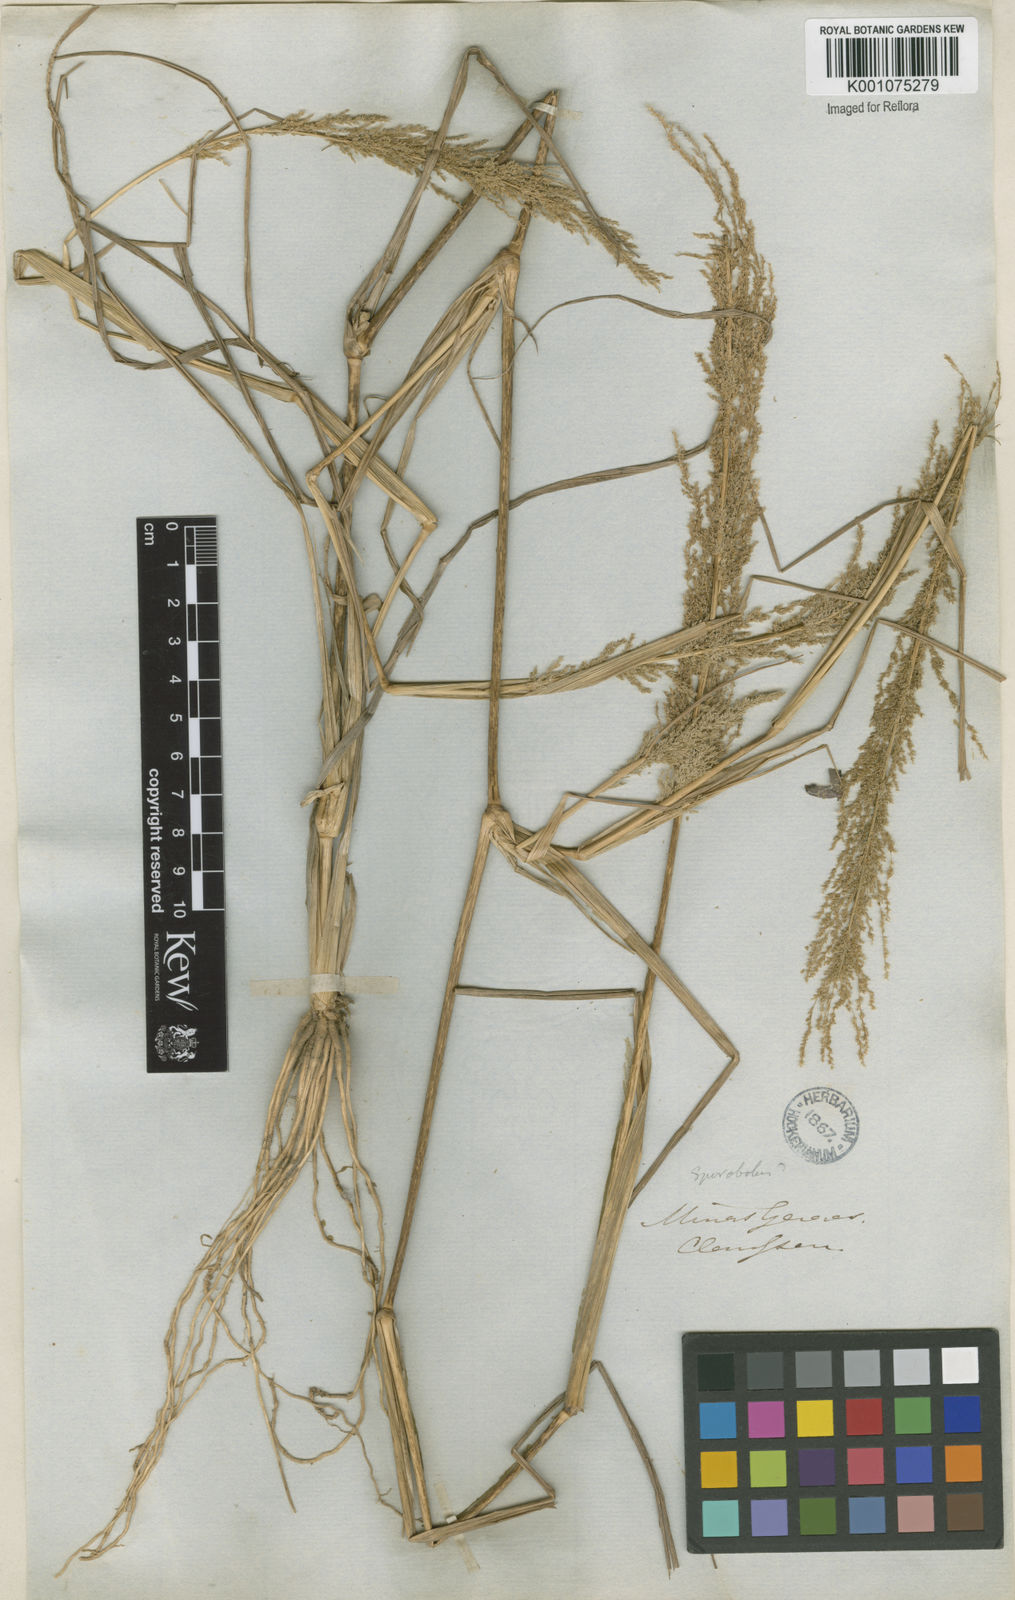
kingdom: Plantae
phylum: Tracheophyta
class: Liliopsida
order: Poales
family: Poaceae
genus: Eragrostis
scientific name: Eragrostis japonica
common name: Pond lovegrass
